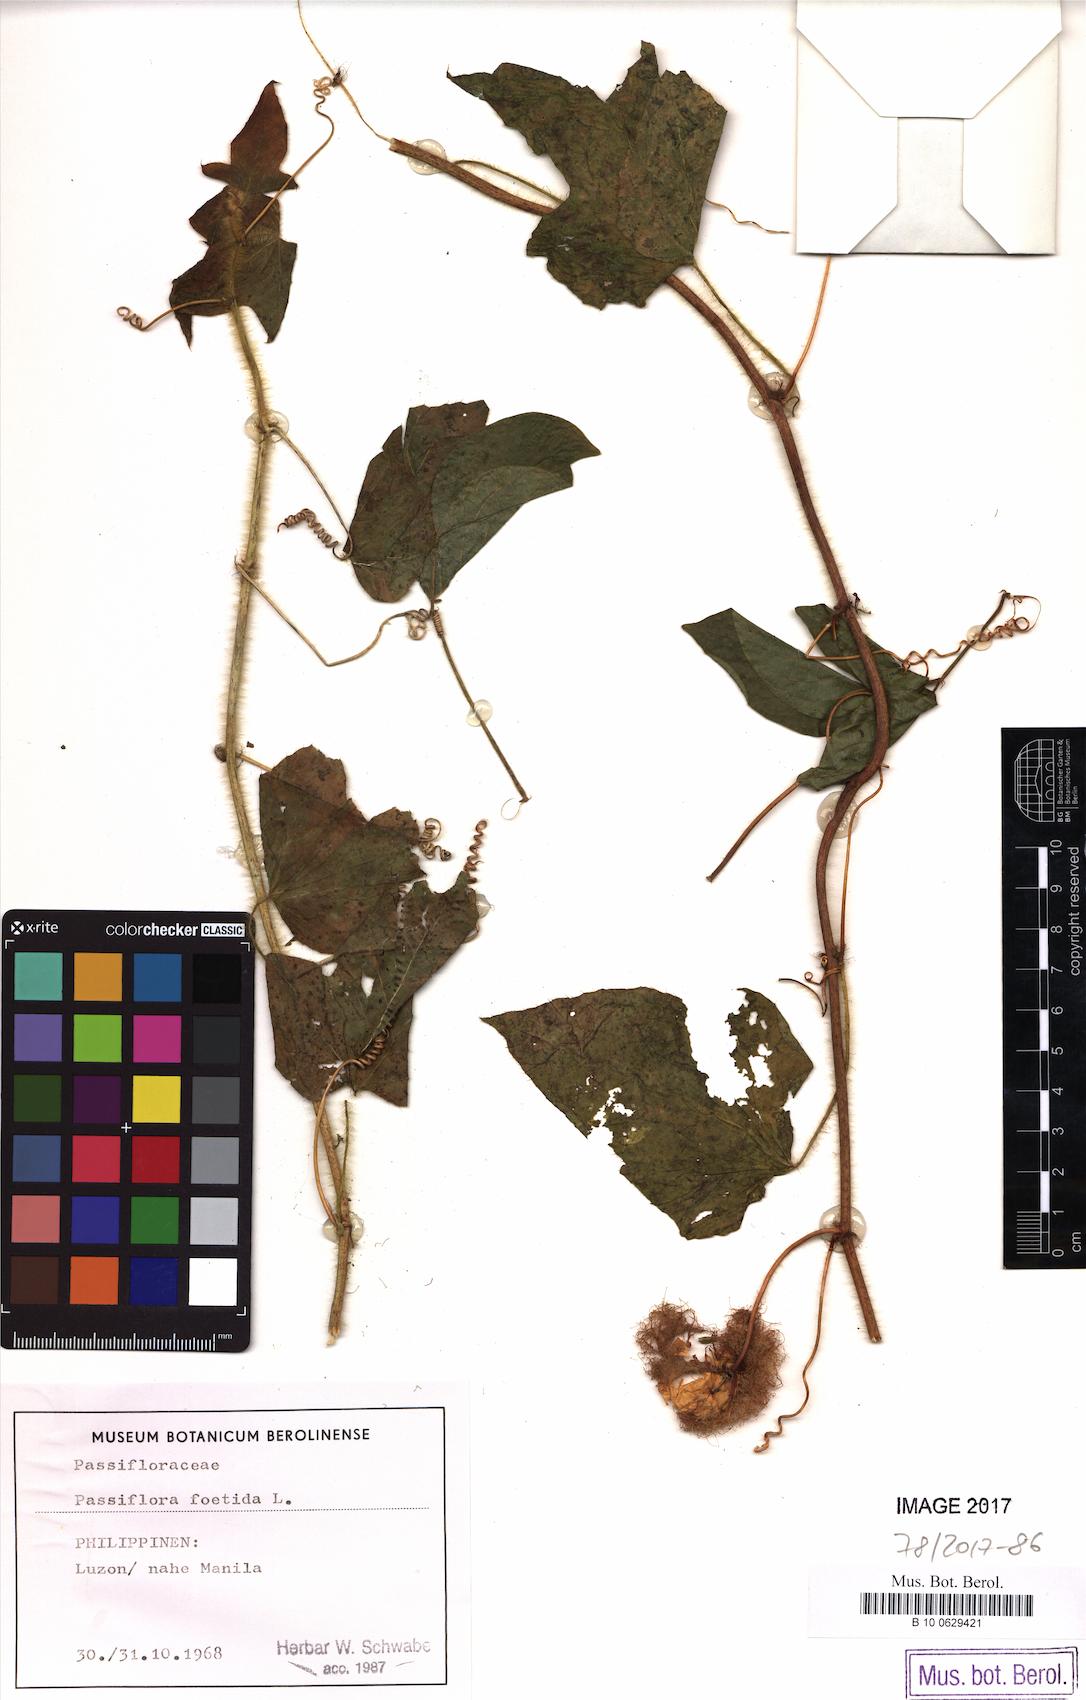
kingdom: Plantae
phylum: Tracheophyta
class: Magnoliopsida
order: Malpighiales
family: Passifloraceae
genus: Passiflora
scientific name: Passiflora foetida
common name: Fetid passionflower
